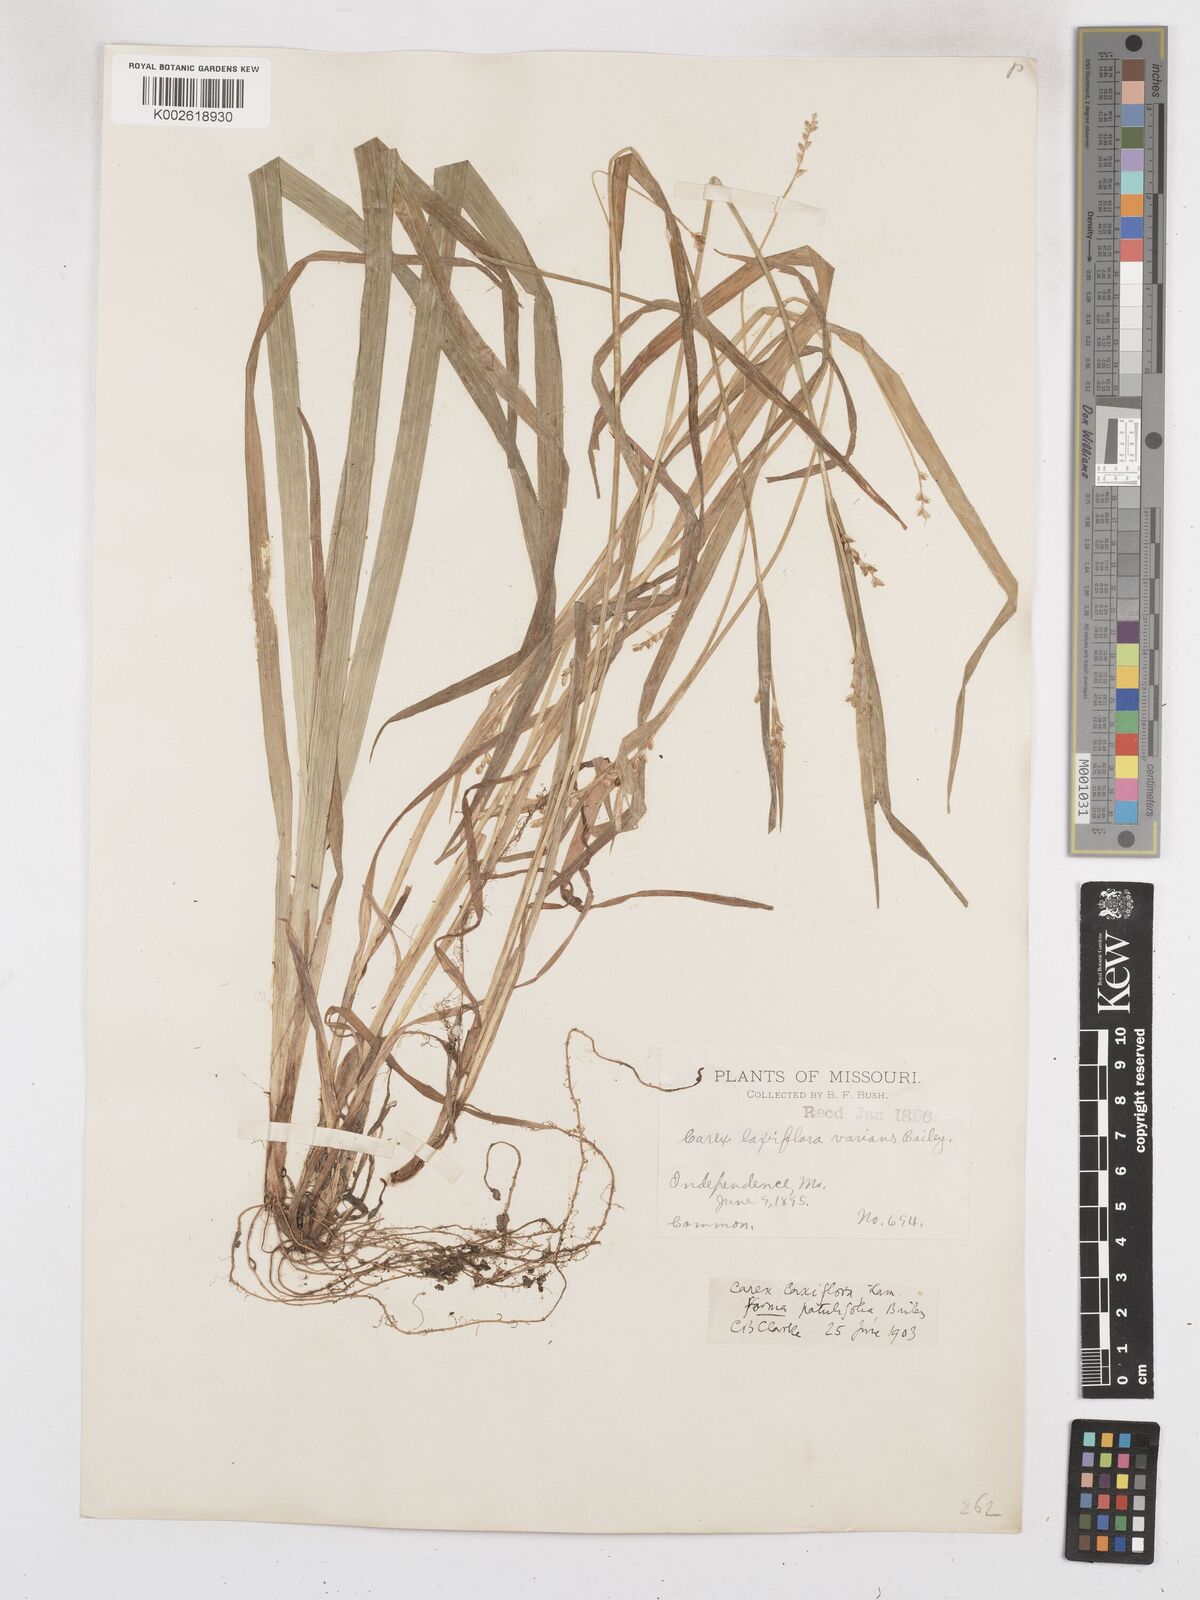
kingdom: Plantae
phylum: Tracheophyta
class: Liliopsida
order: Poales
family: Cyperaceae
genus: Carex
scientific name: Carex laxiflora
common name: Beech wood sedge
